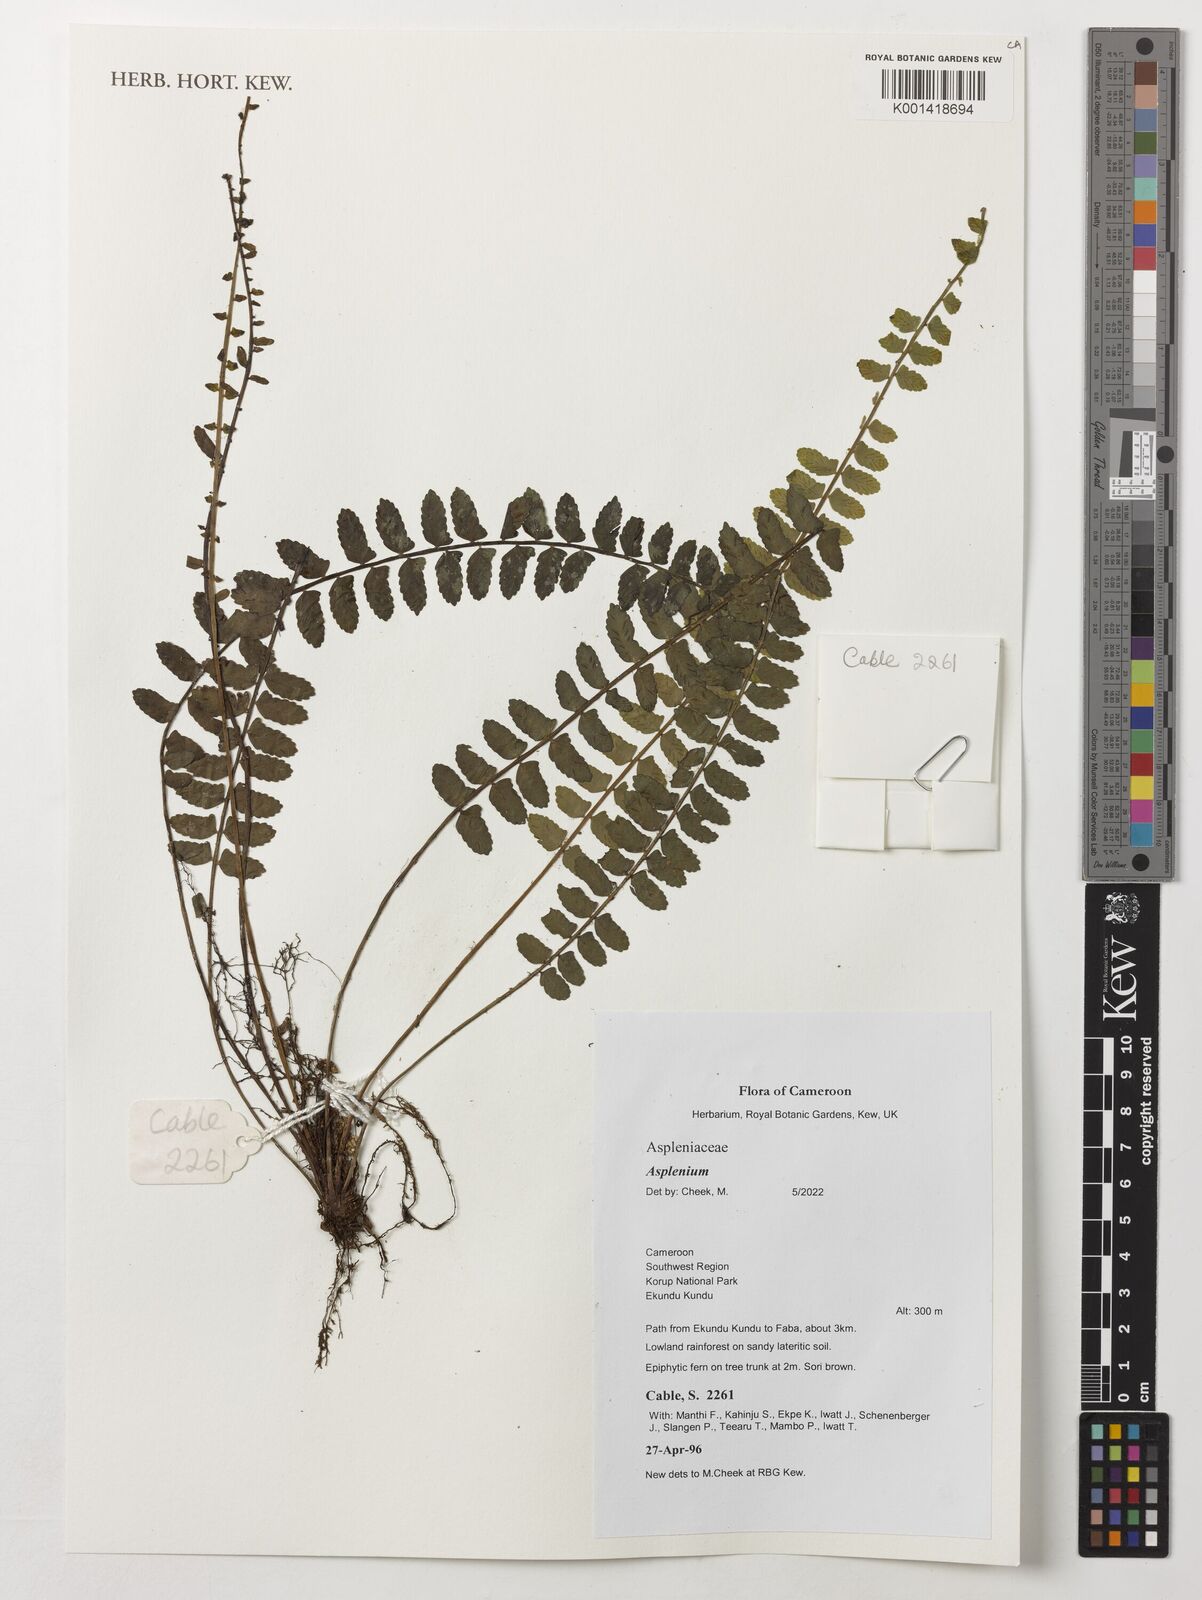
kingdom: Plantae
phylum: Tracheophyta
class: Polypodiopsida
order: Polypodiales
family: Athyriaceae
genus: Diplazium
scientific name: Diplazium
